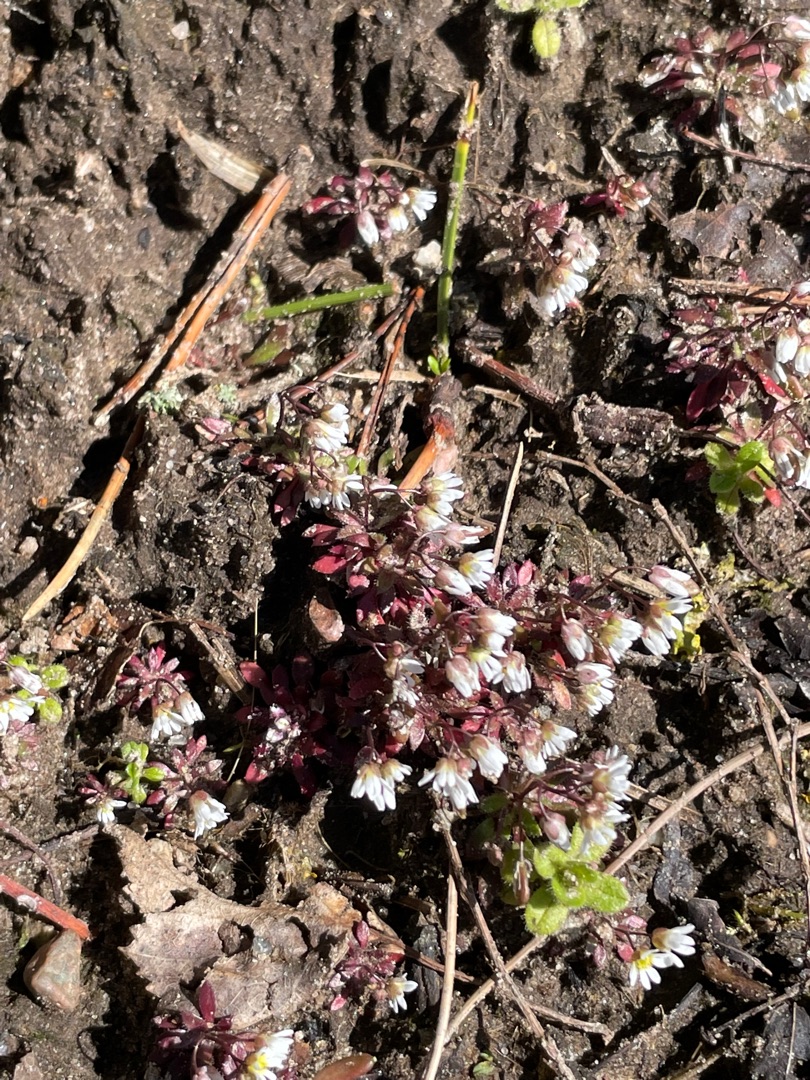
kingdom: Plantae
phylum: Tracheophyta
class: Magnoliopsida
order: Brassicales
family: Brassicaceae
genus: Draba
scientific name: Draba verna
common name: Vår-gæslingeblomst
